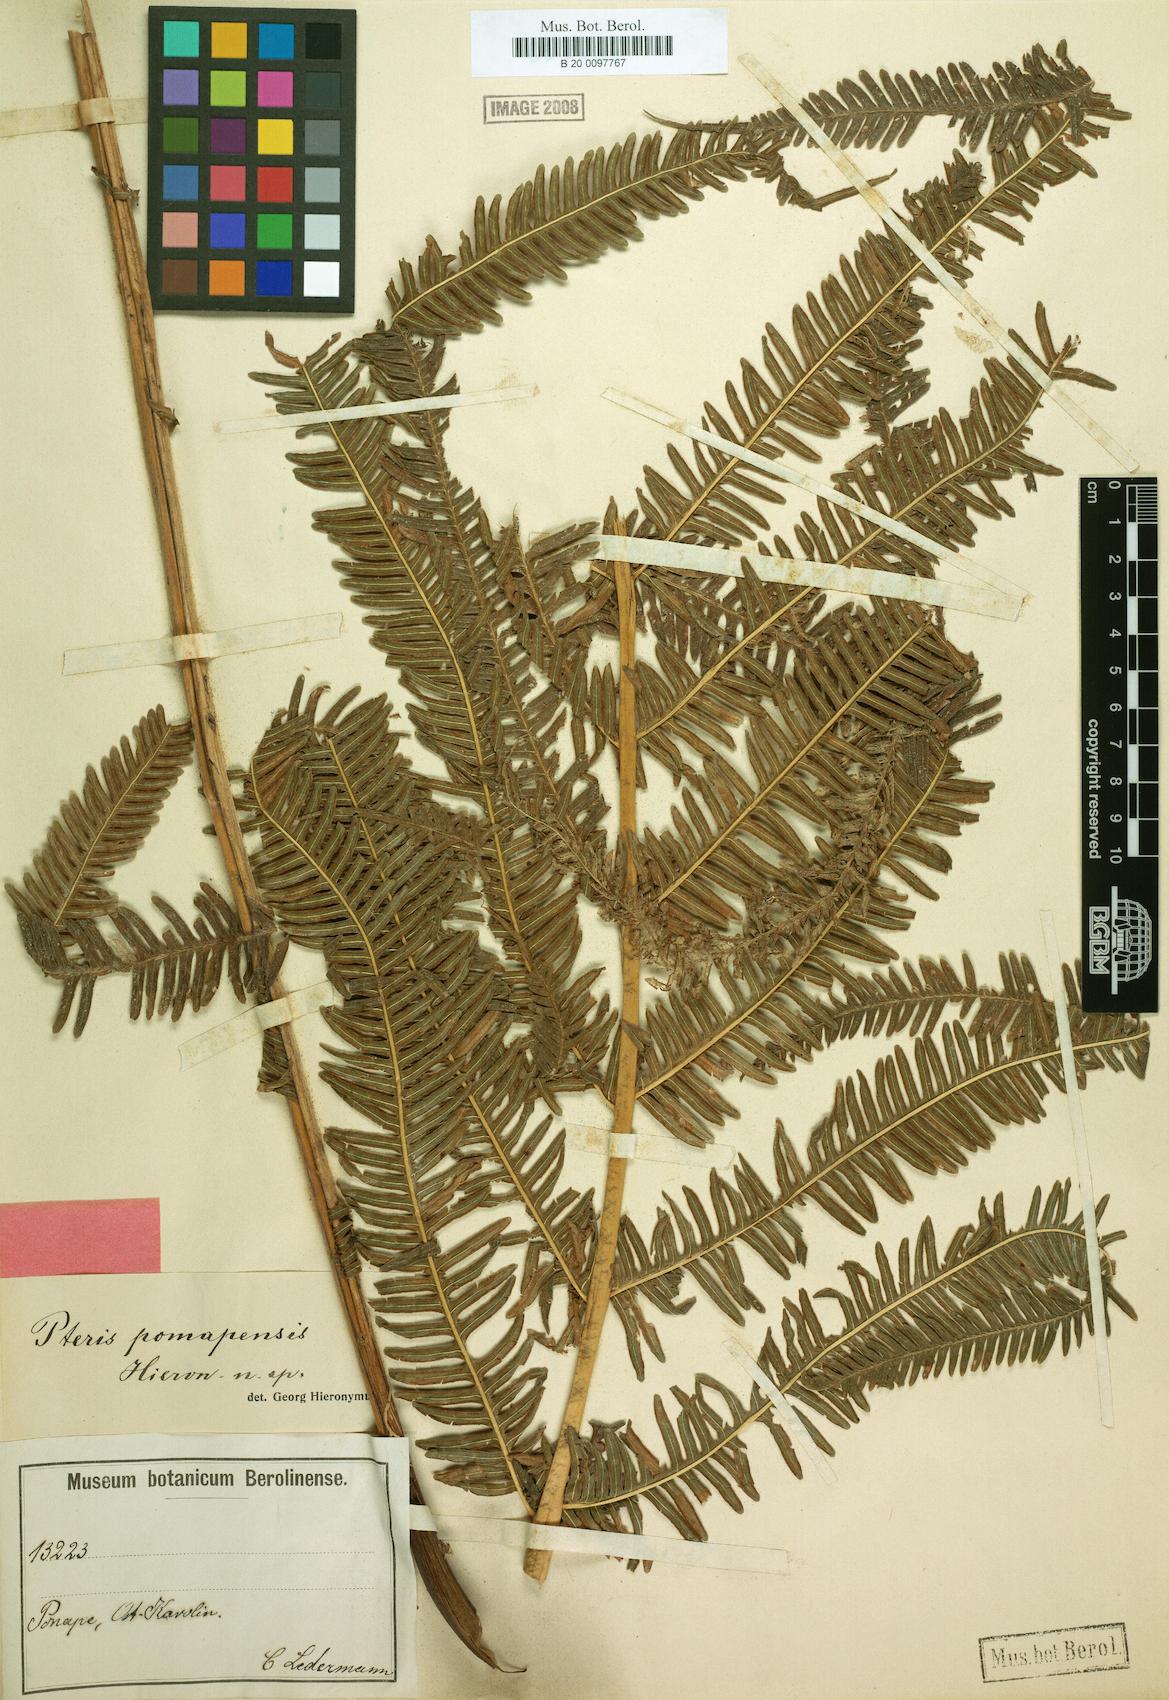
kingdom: Plantae
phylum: Tracheophyta
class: Polypodiopsida
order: Polypodiales
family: Pteridaceae
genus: Pteris
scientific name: Pteris
